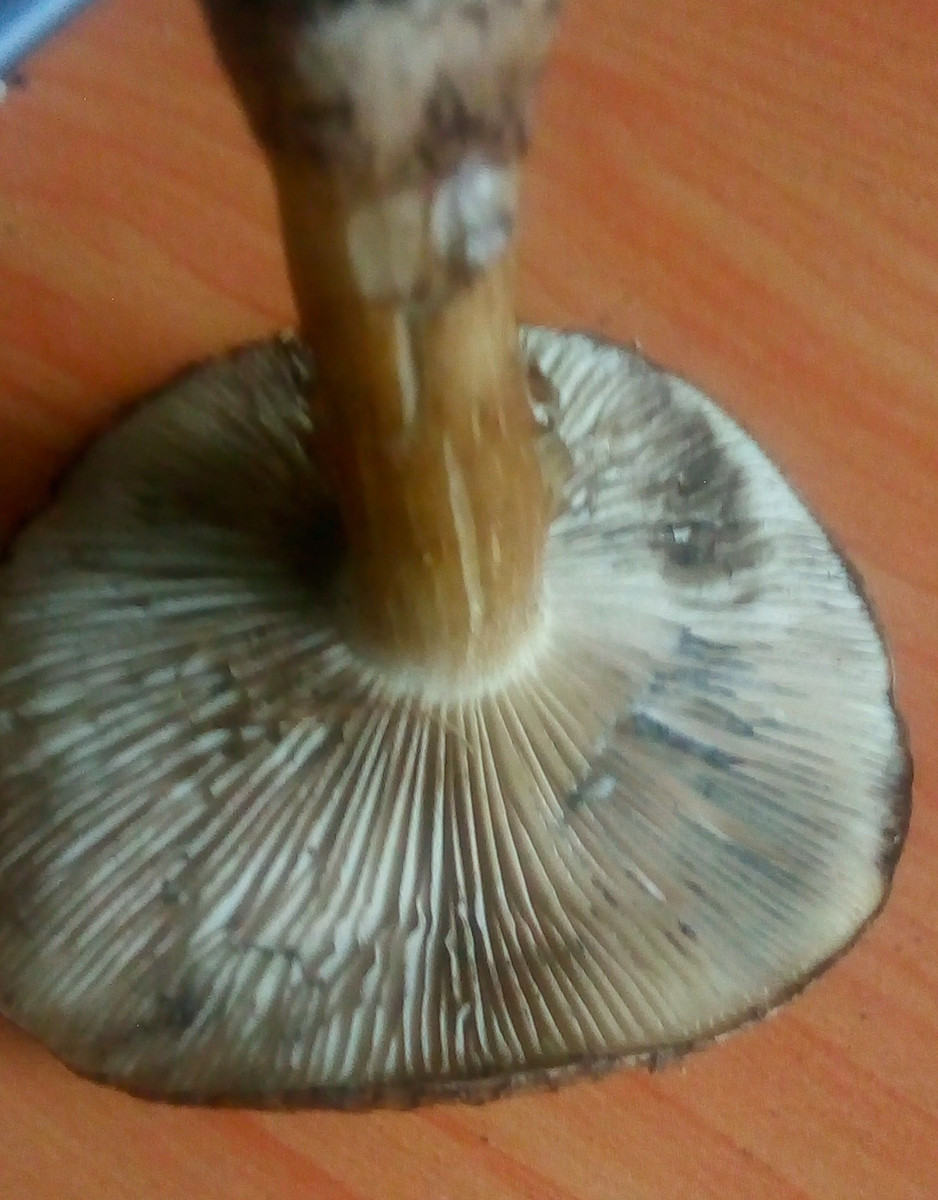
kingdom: Fungi
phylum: Basidiomycota
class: Agaricomycetes
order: Agaricales
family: Lyophyllaceae
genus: Lyophyllum
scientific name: Lyophyllum paelochroum
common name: blånende gråblad
